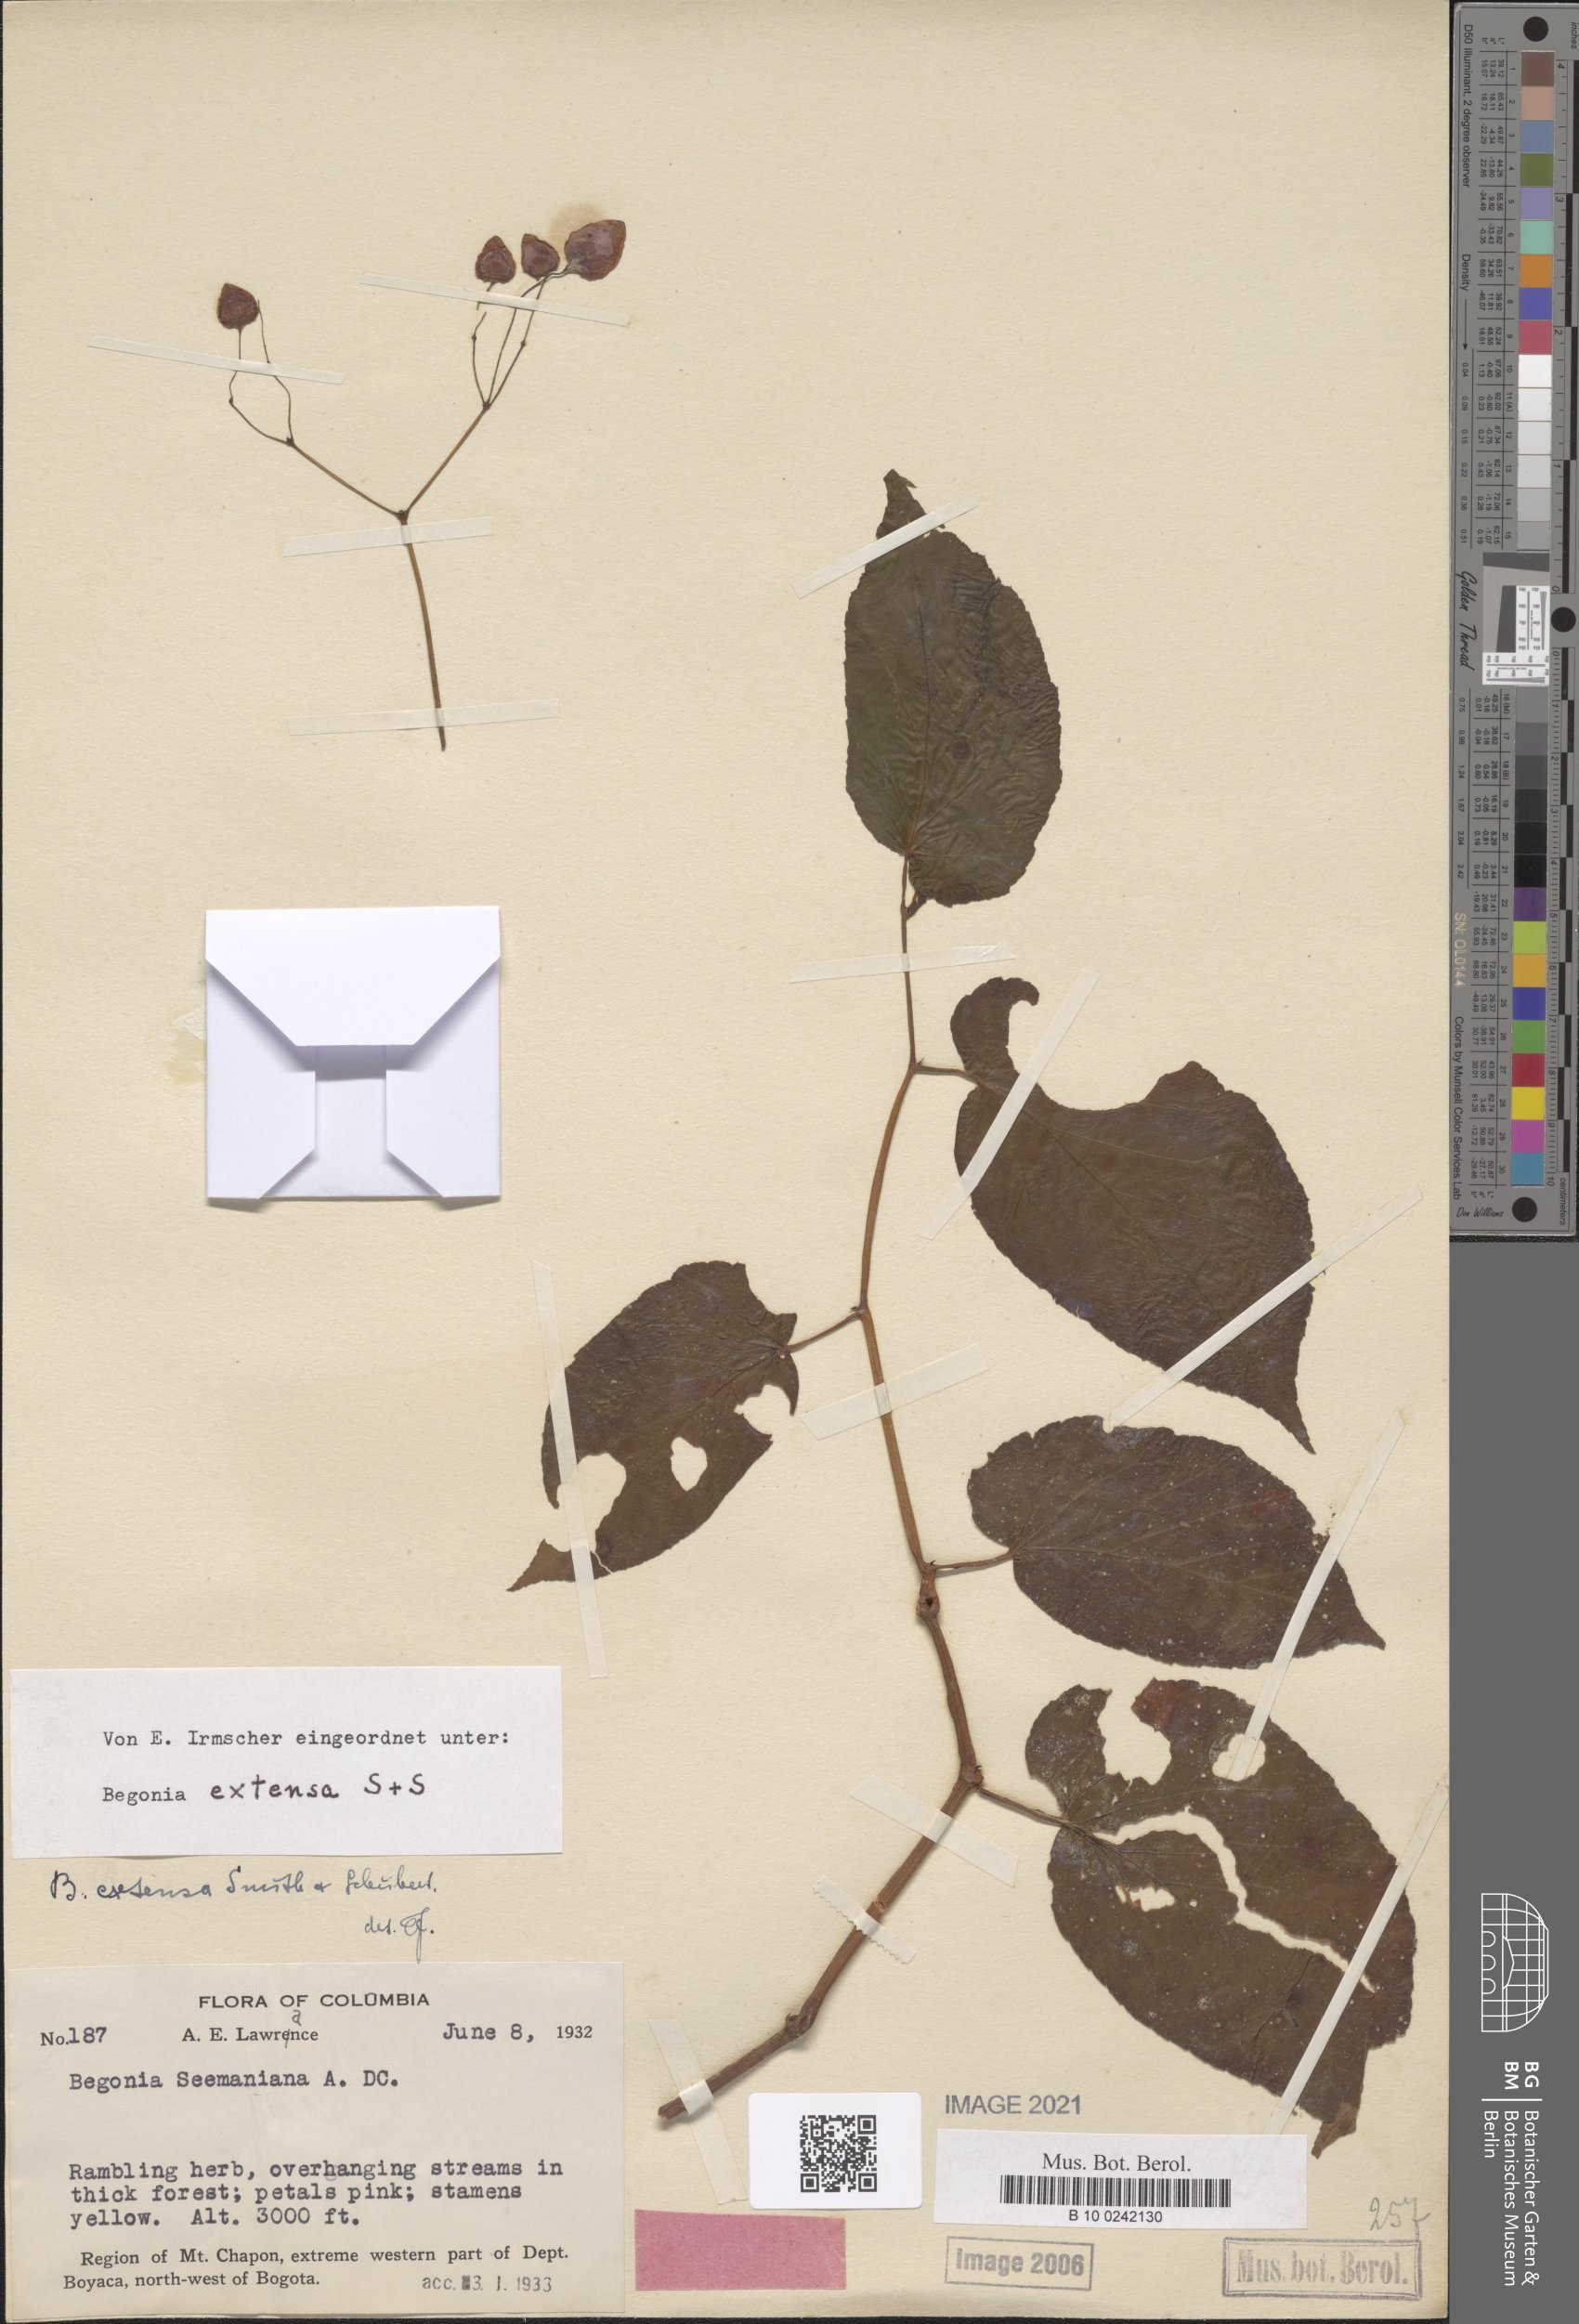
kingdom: Plantae
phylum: Tracheophyta
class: Magnoliopsida
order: Cucurbitales
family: Begoniaceae
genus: Begonia
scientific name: Begonia extensa
